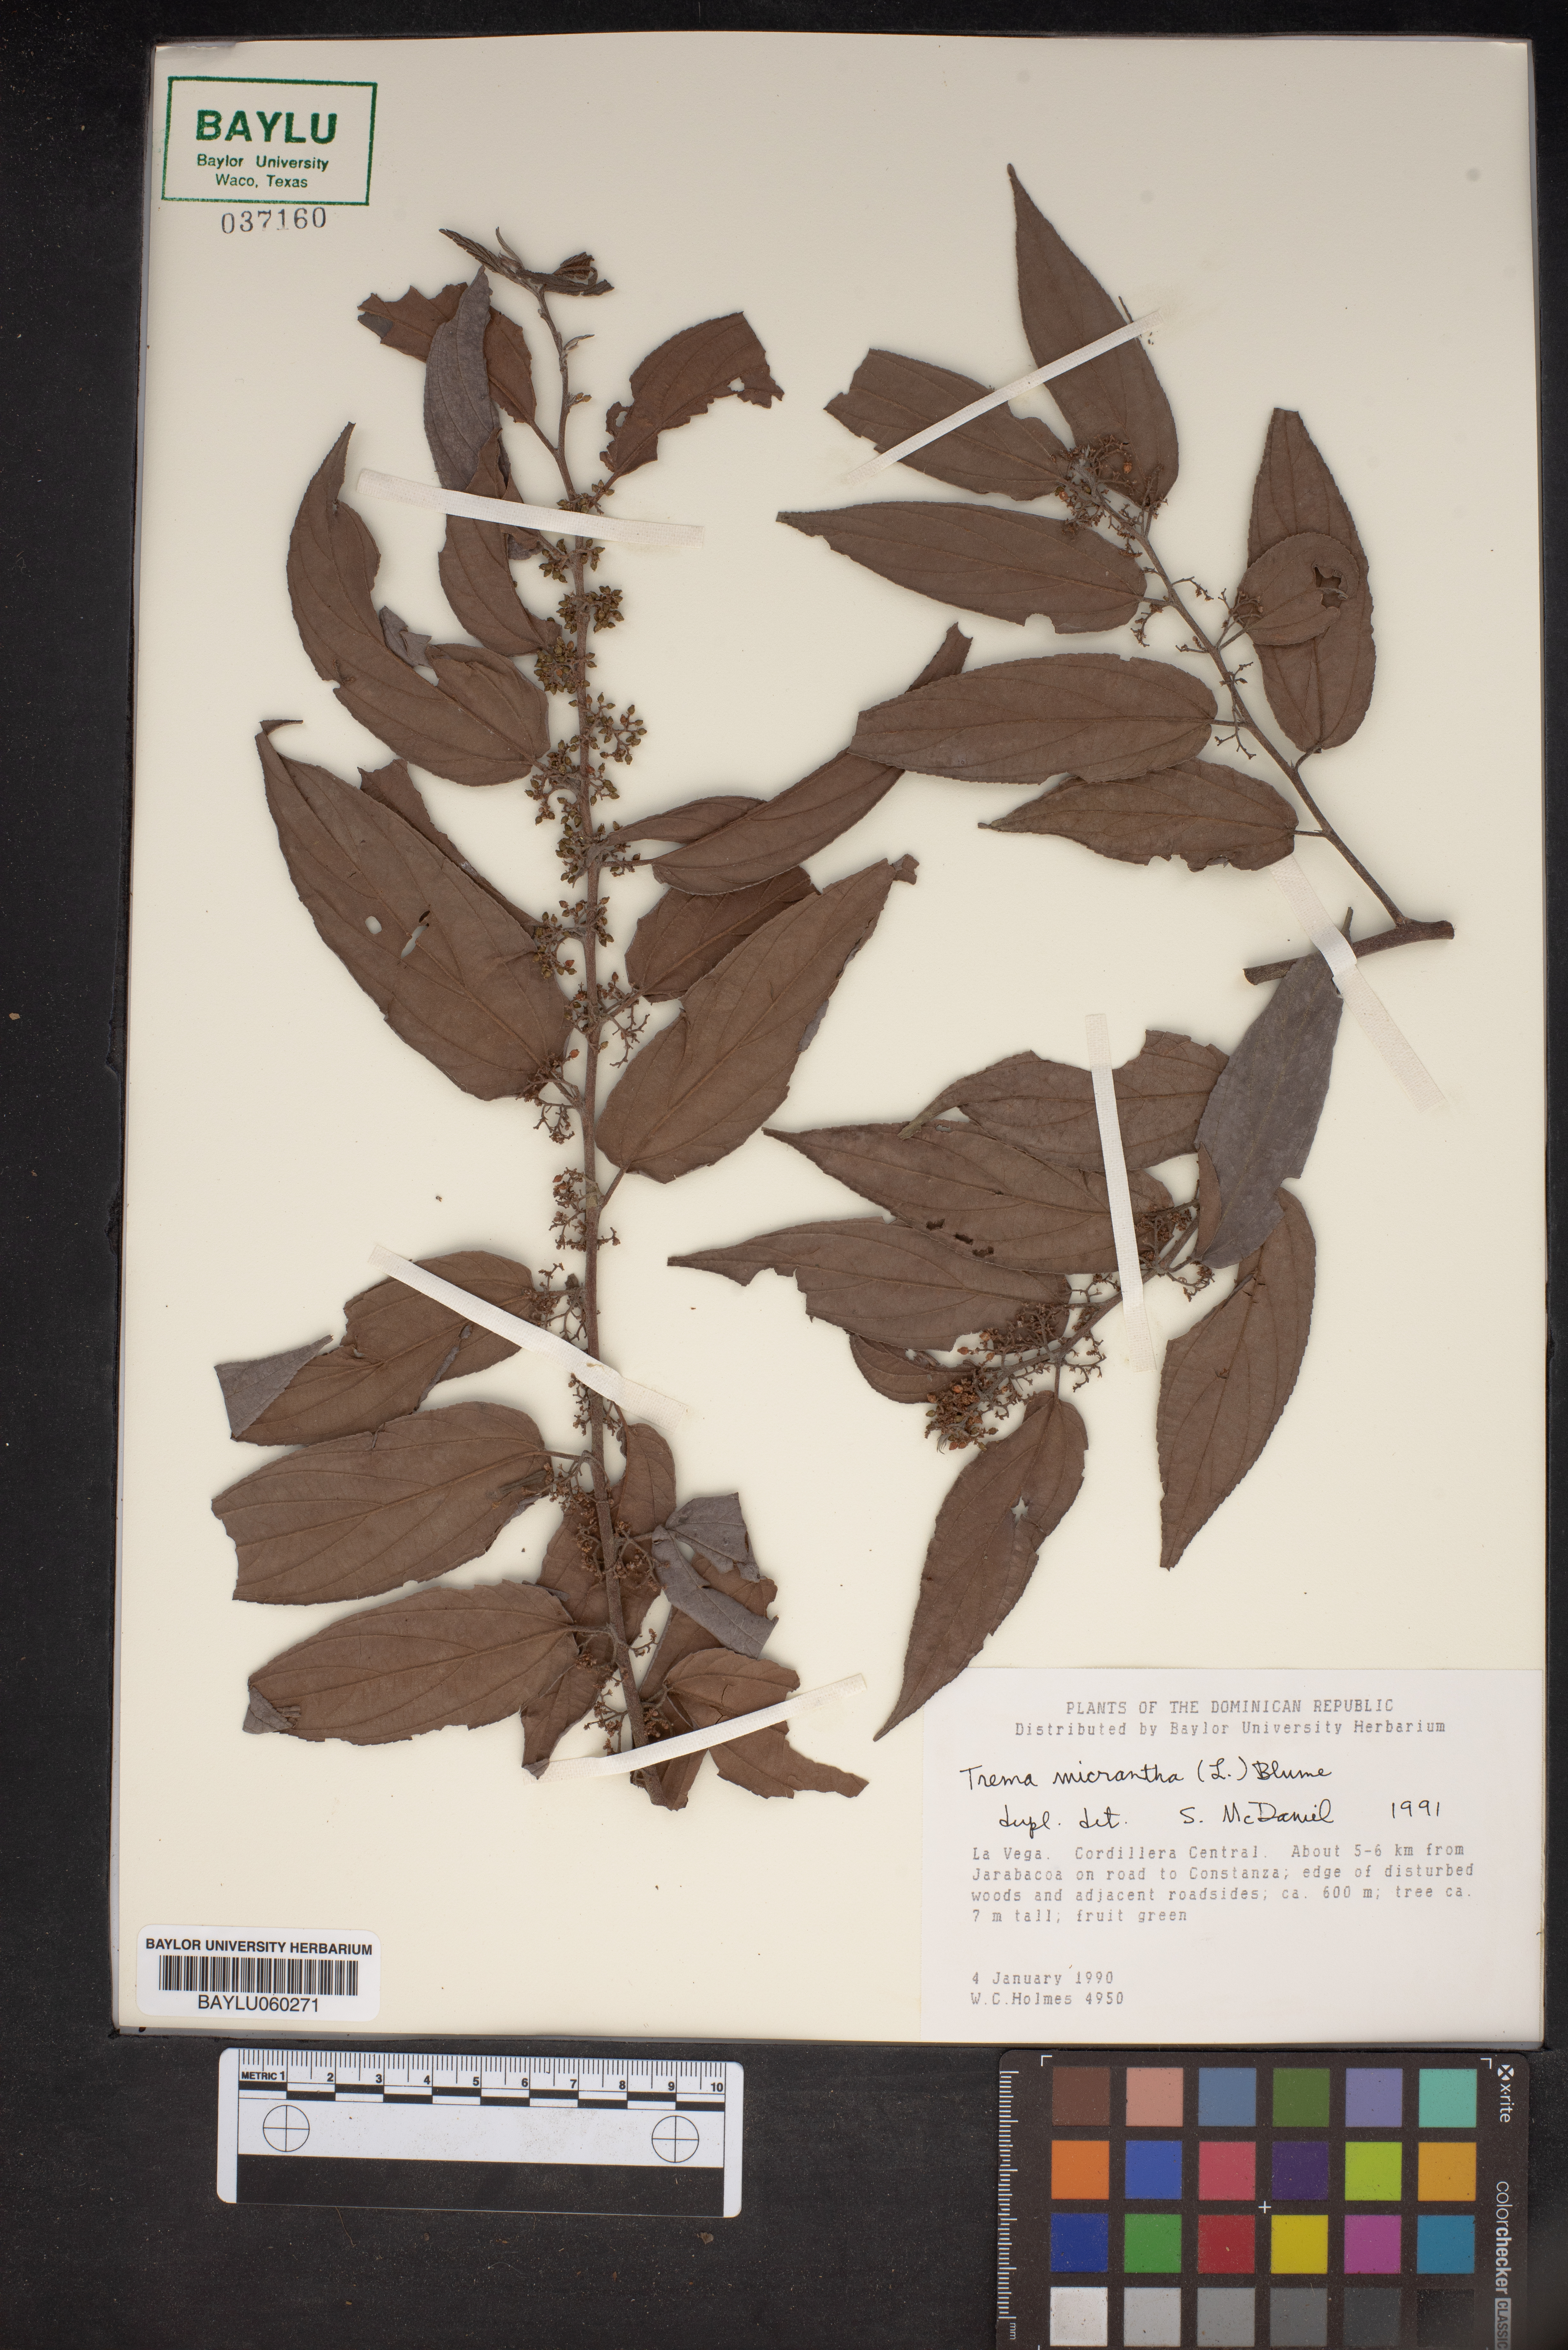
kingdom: Plantae
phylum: Tracheophyta
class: Magnoliopsida
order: Rosales
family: Cannabaceae
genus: Trema
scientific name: Trema micranthum
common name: Jamaican nettletree
